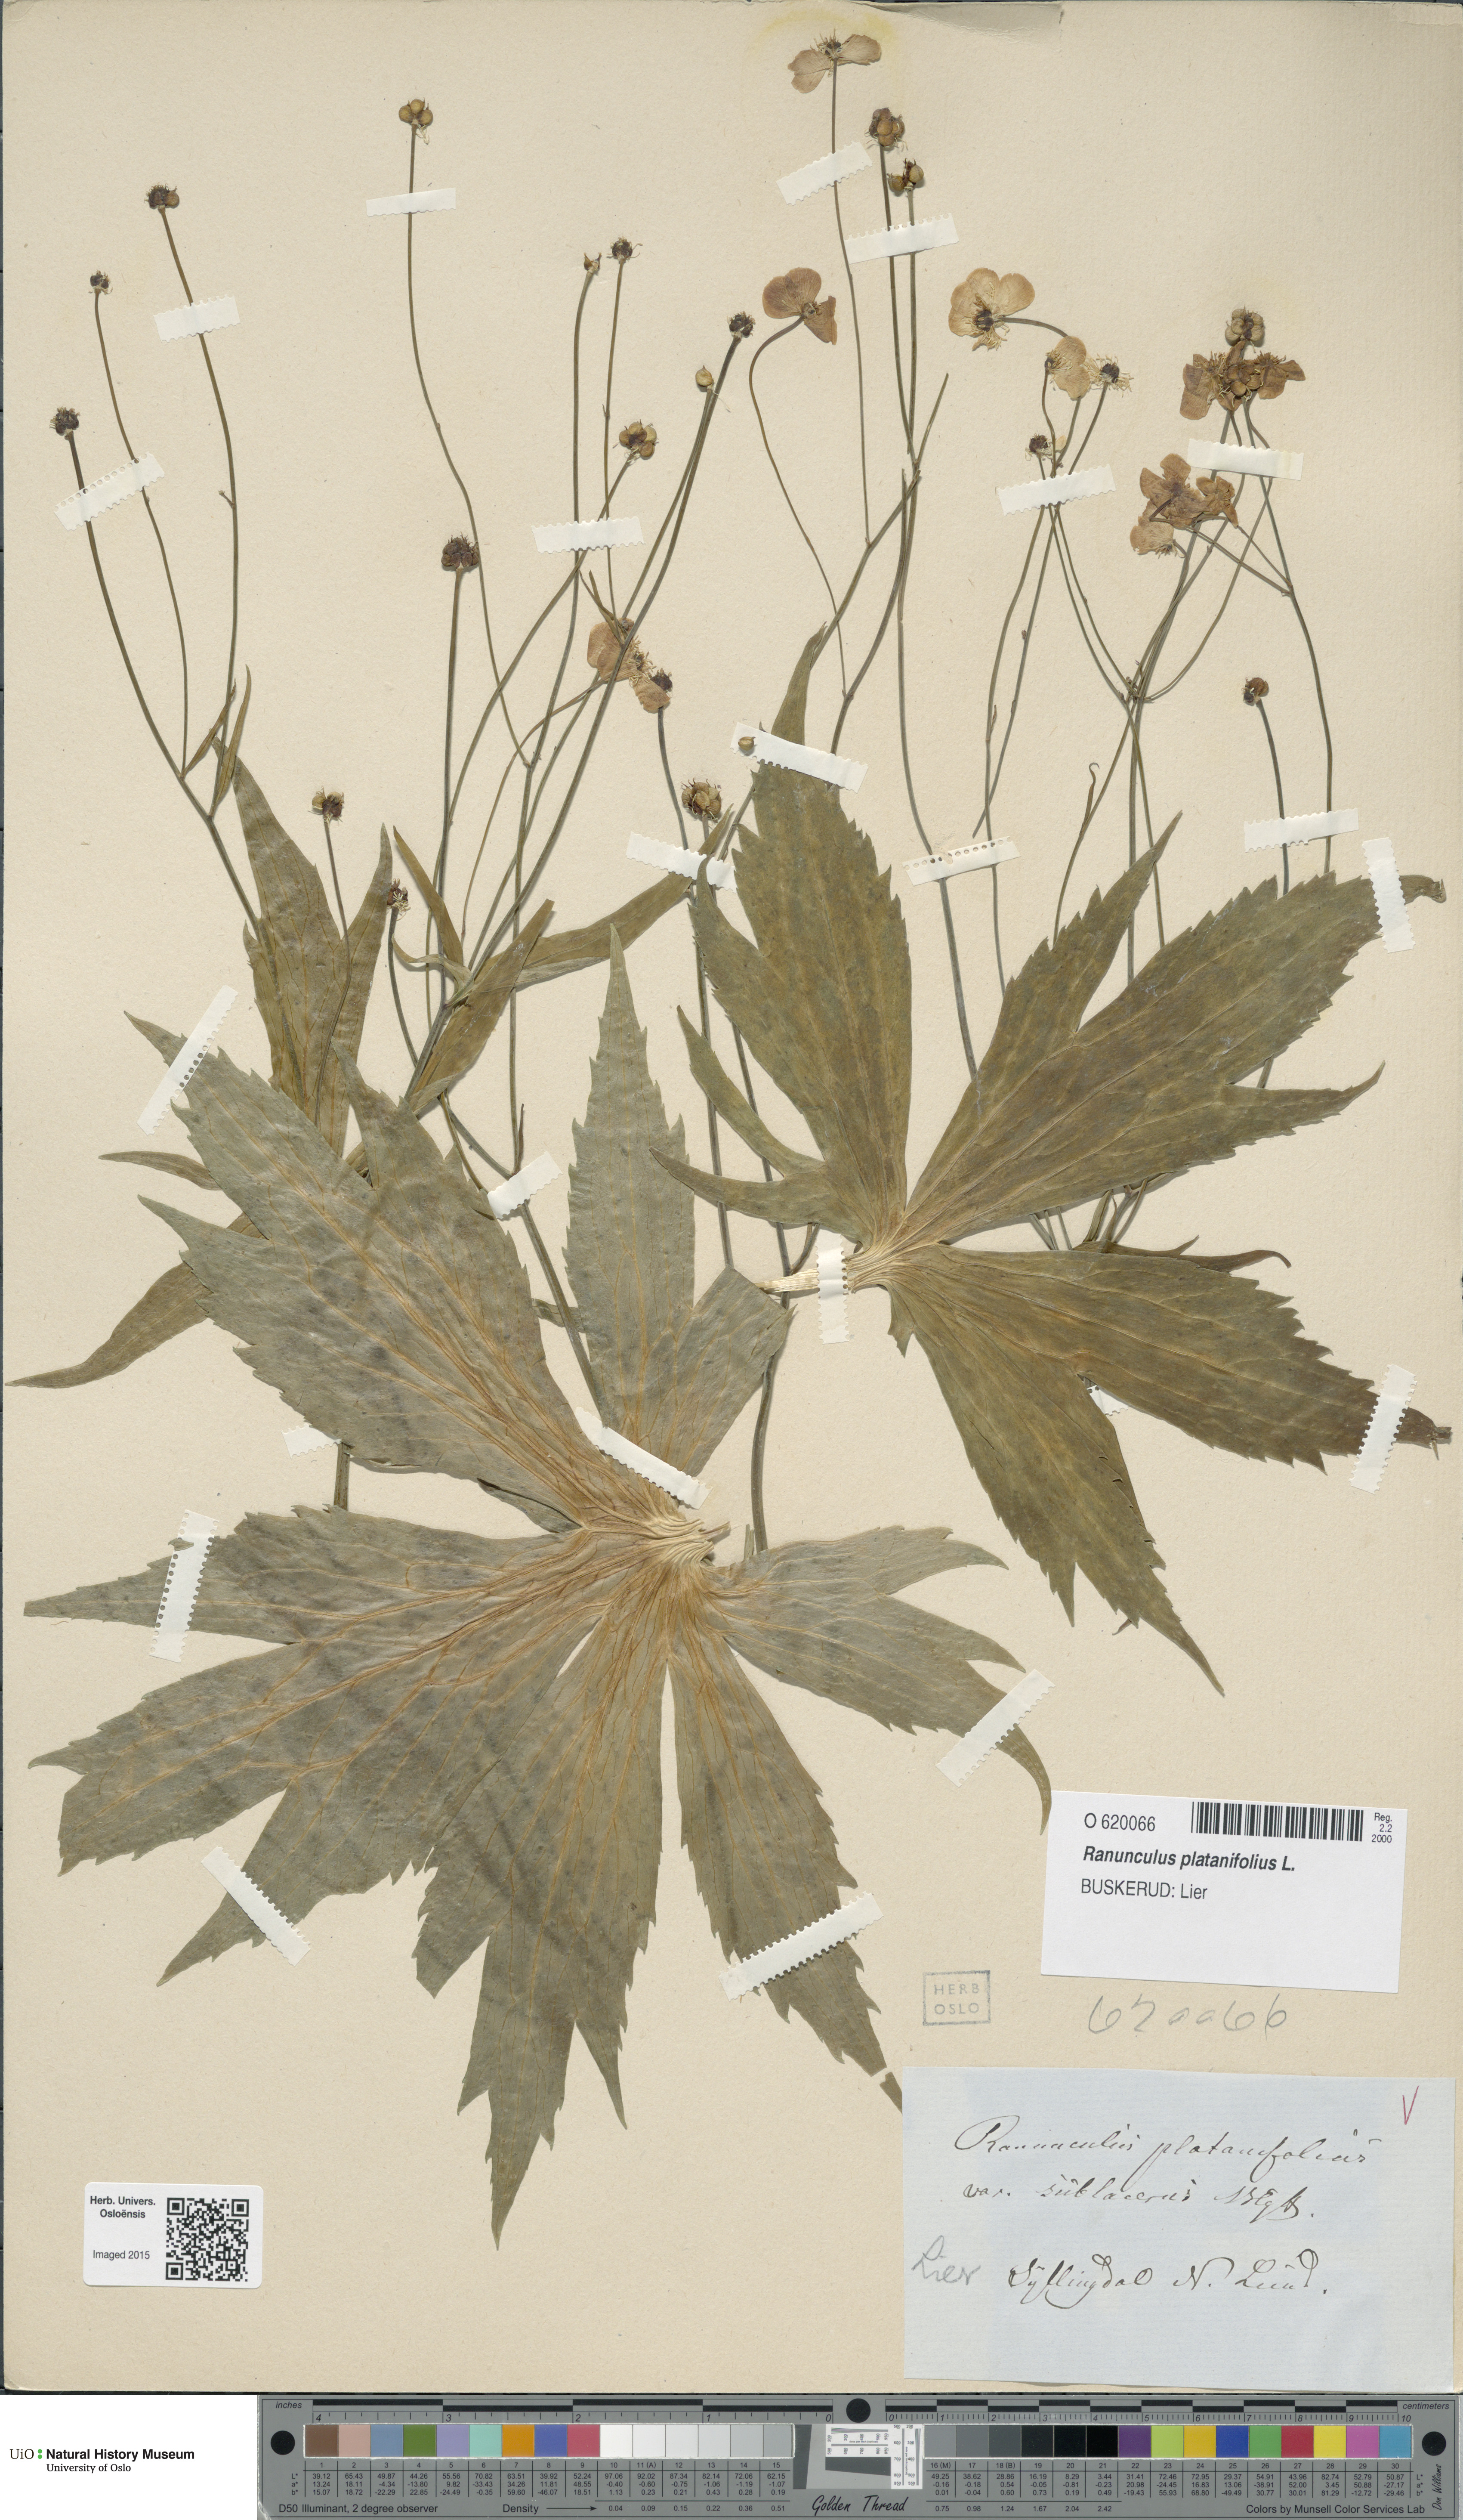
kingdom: Plantae
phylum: Tracheophyta
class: Magnoliopsida
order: Ranunculales
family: Ranunculaceae
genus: Ranunculus
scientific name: Ranunculus platanifolius
